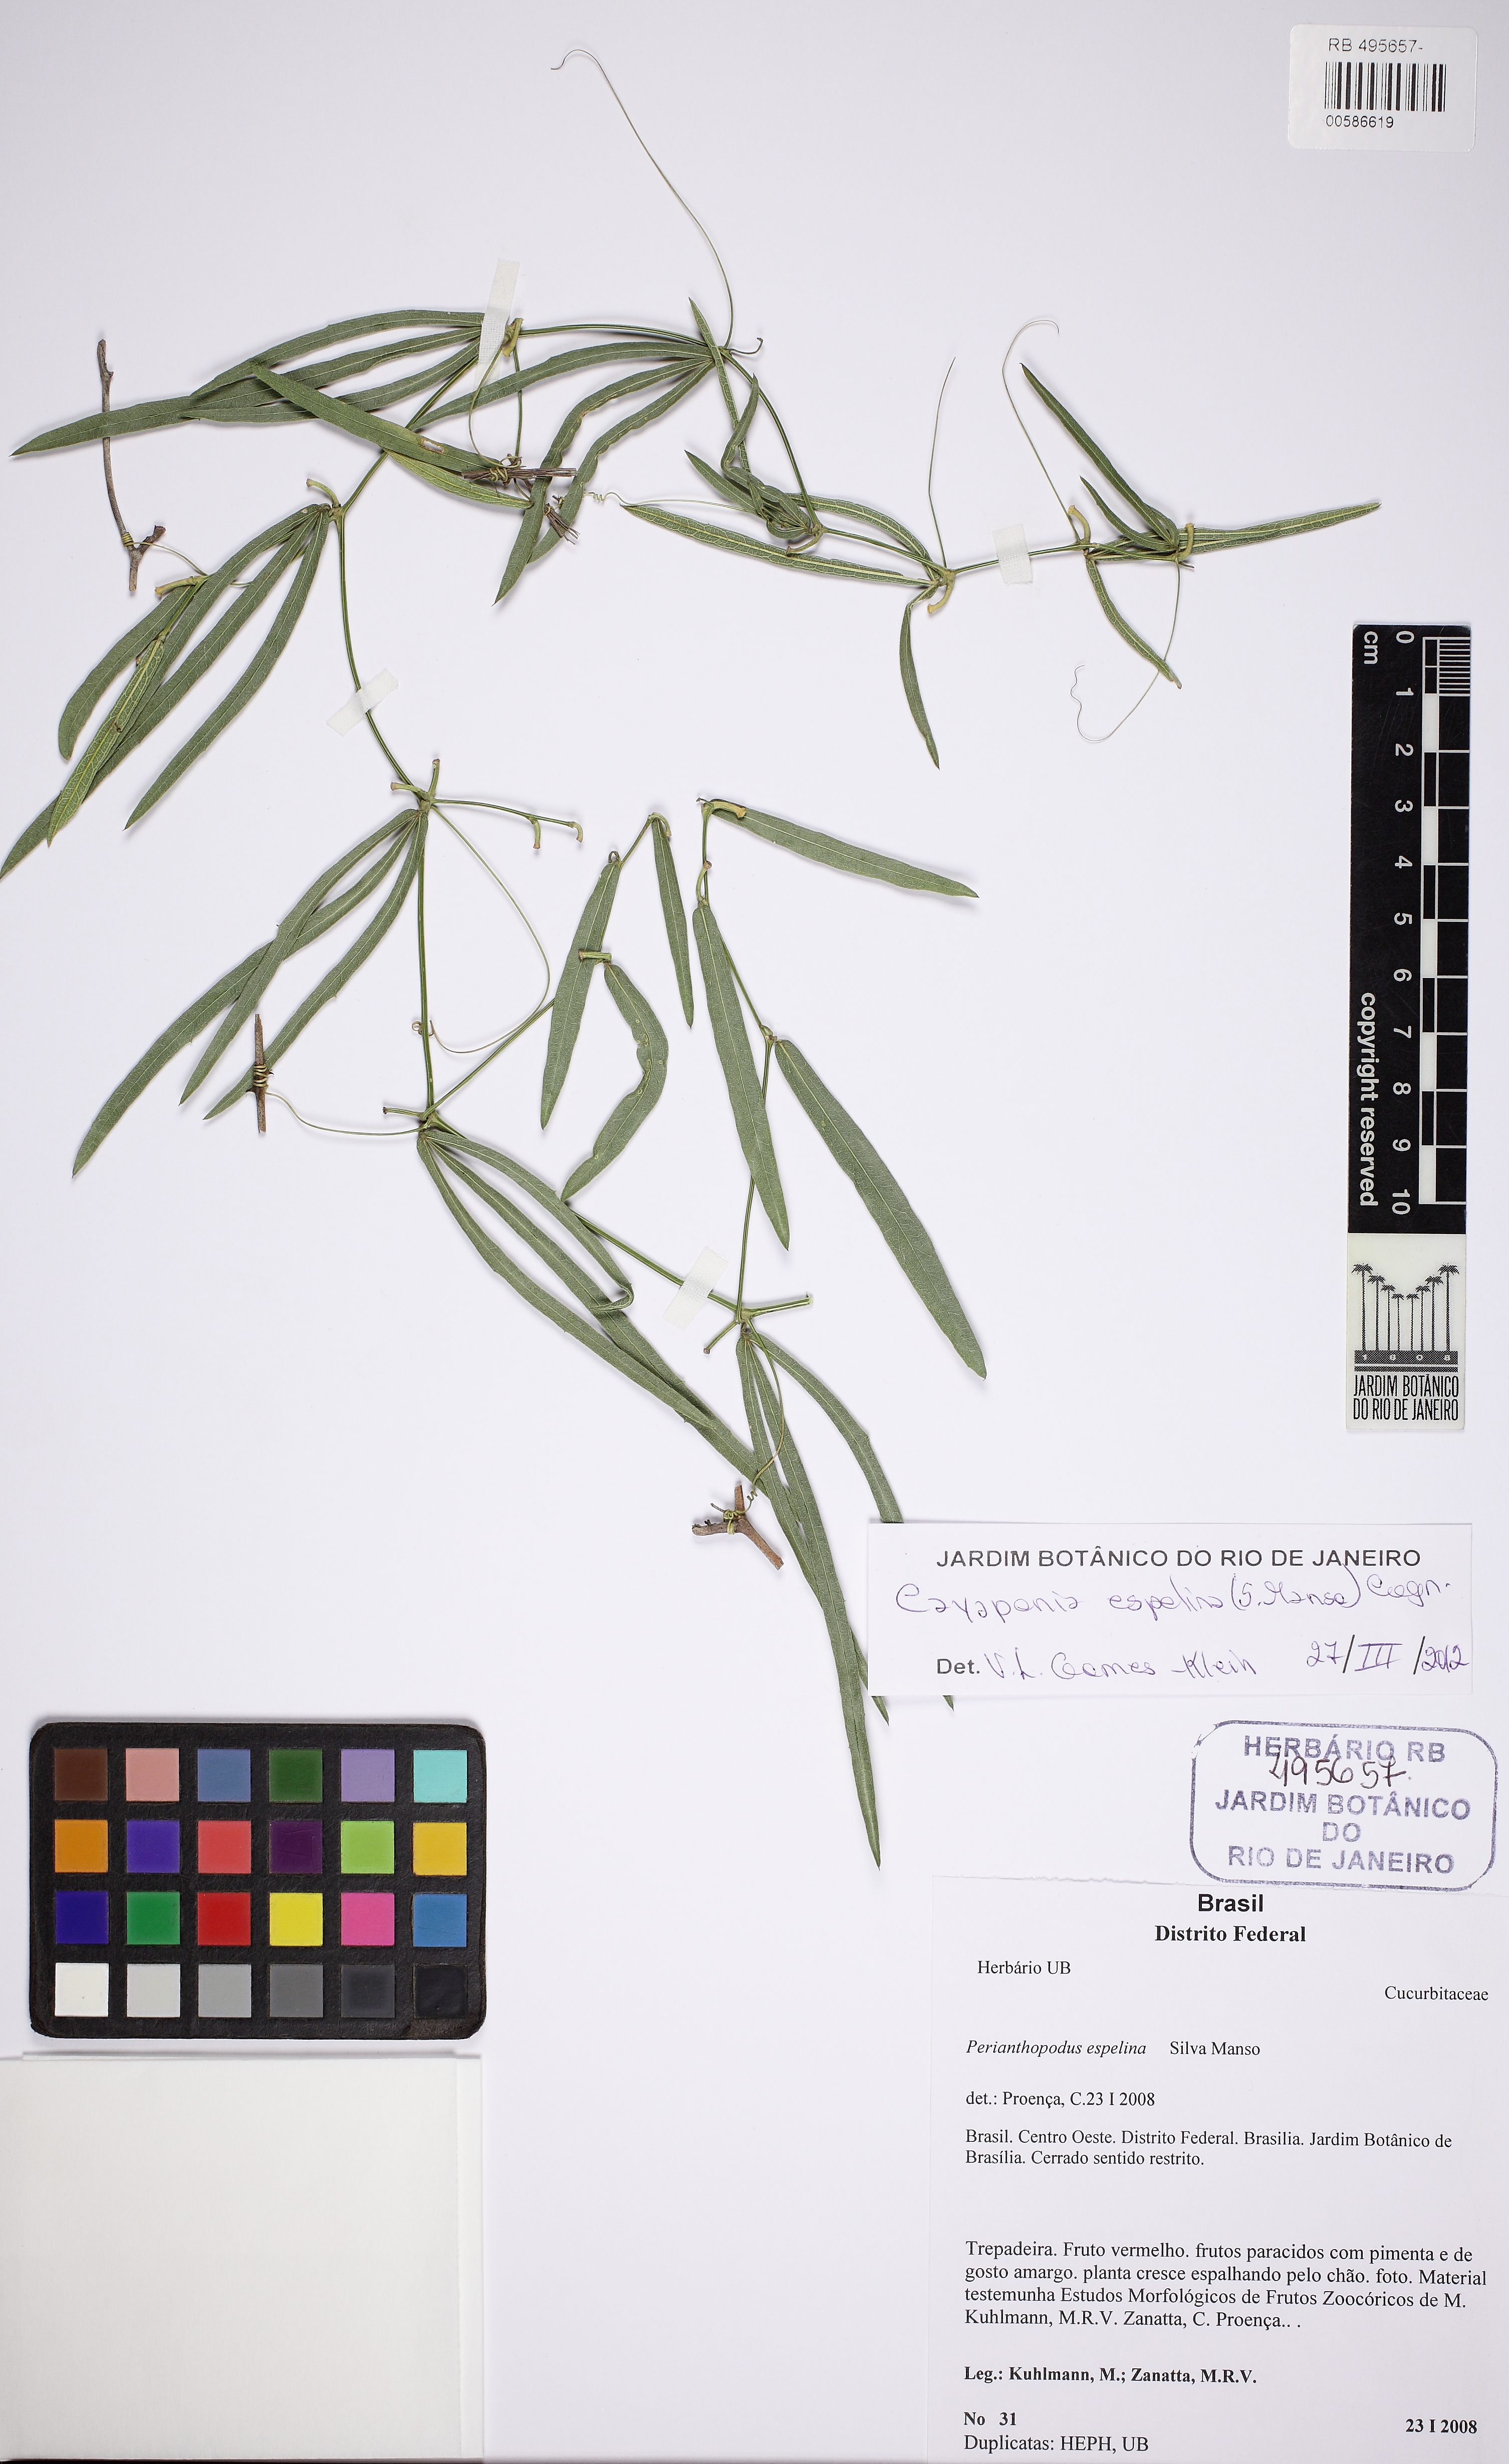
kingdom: Plantae
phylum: Tracheophyta
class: Magnoliopsida
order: Cucurbitales
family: Cucurbitaceae
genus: Cayaponia
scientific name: Cayaponia espelina
